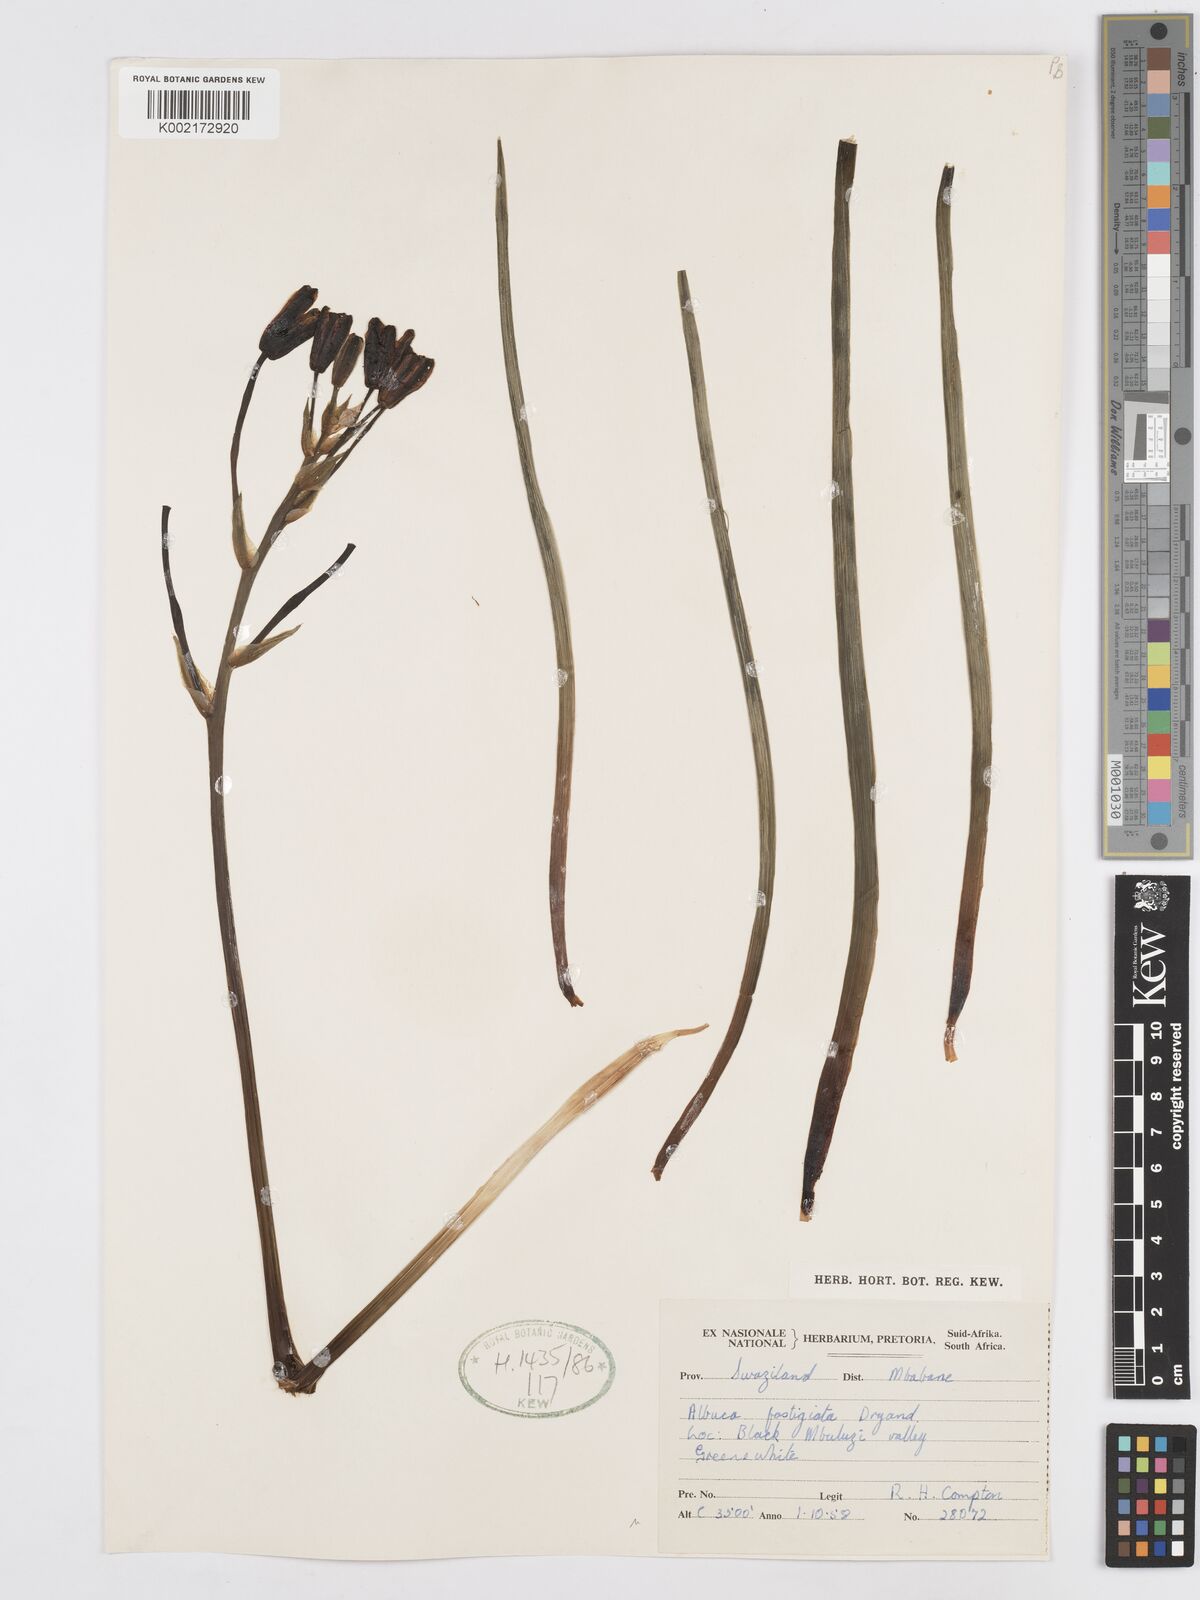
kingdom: Plantae
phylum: Tracheophyta
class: Liliopsida
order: Asparagales
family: Asparagaceae
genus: Albuca
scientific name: Albuca fastigiata
